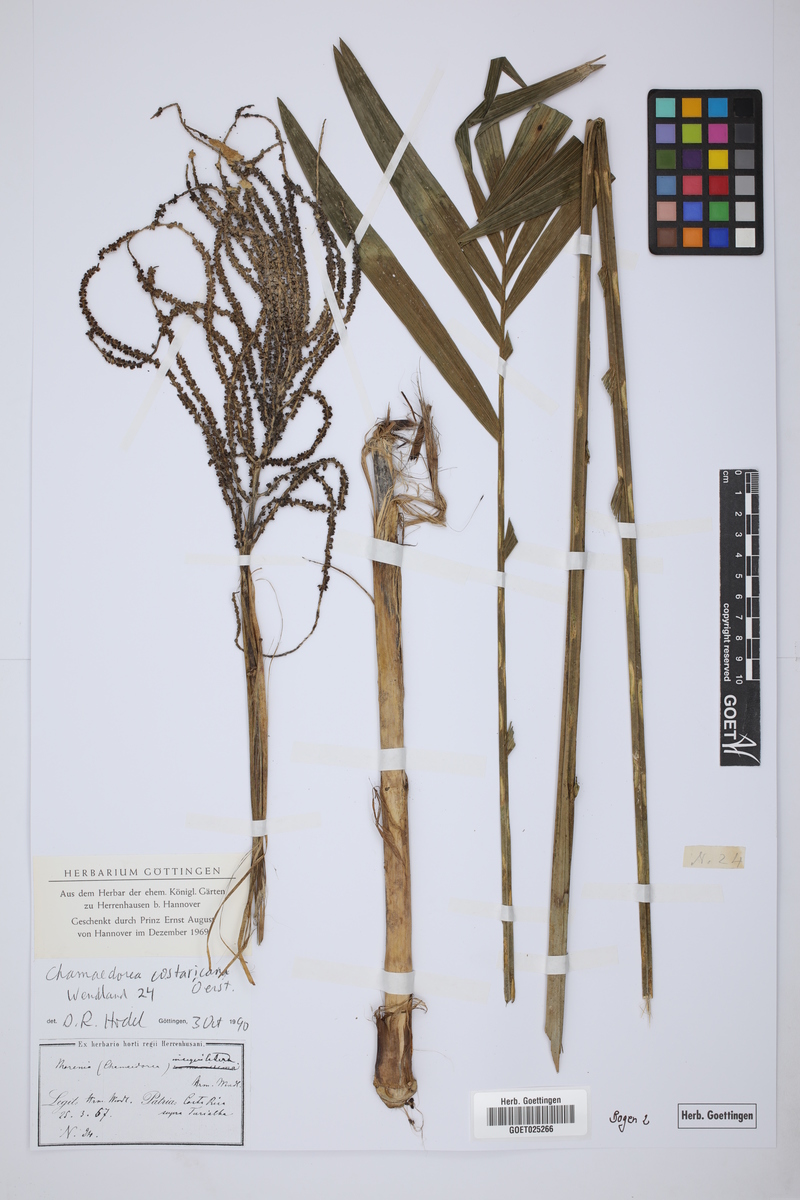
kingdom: Plantae
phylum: Tracheophyta
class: Liliopsida
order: Arecales
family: Arecaceae
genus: Chamaedorea
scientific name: Chamaedorea costaricana
